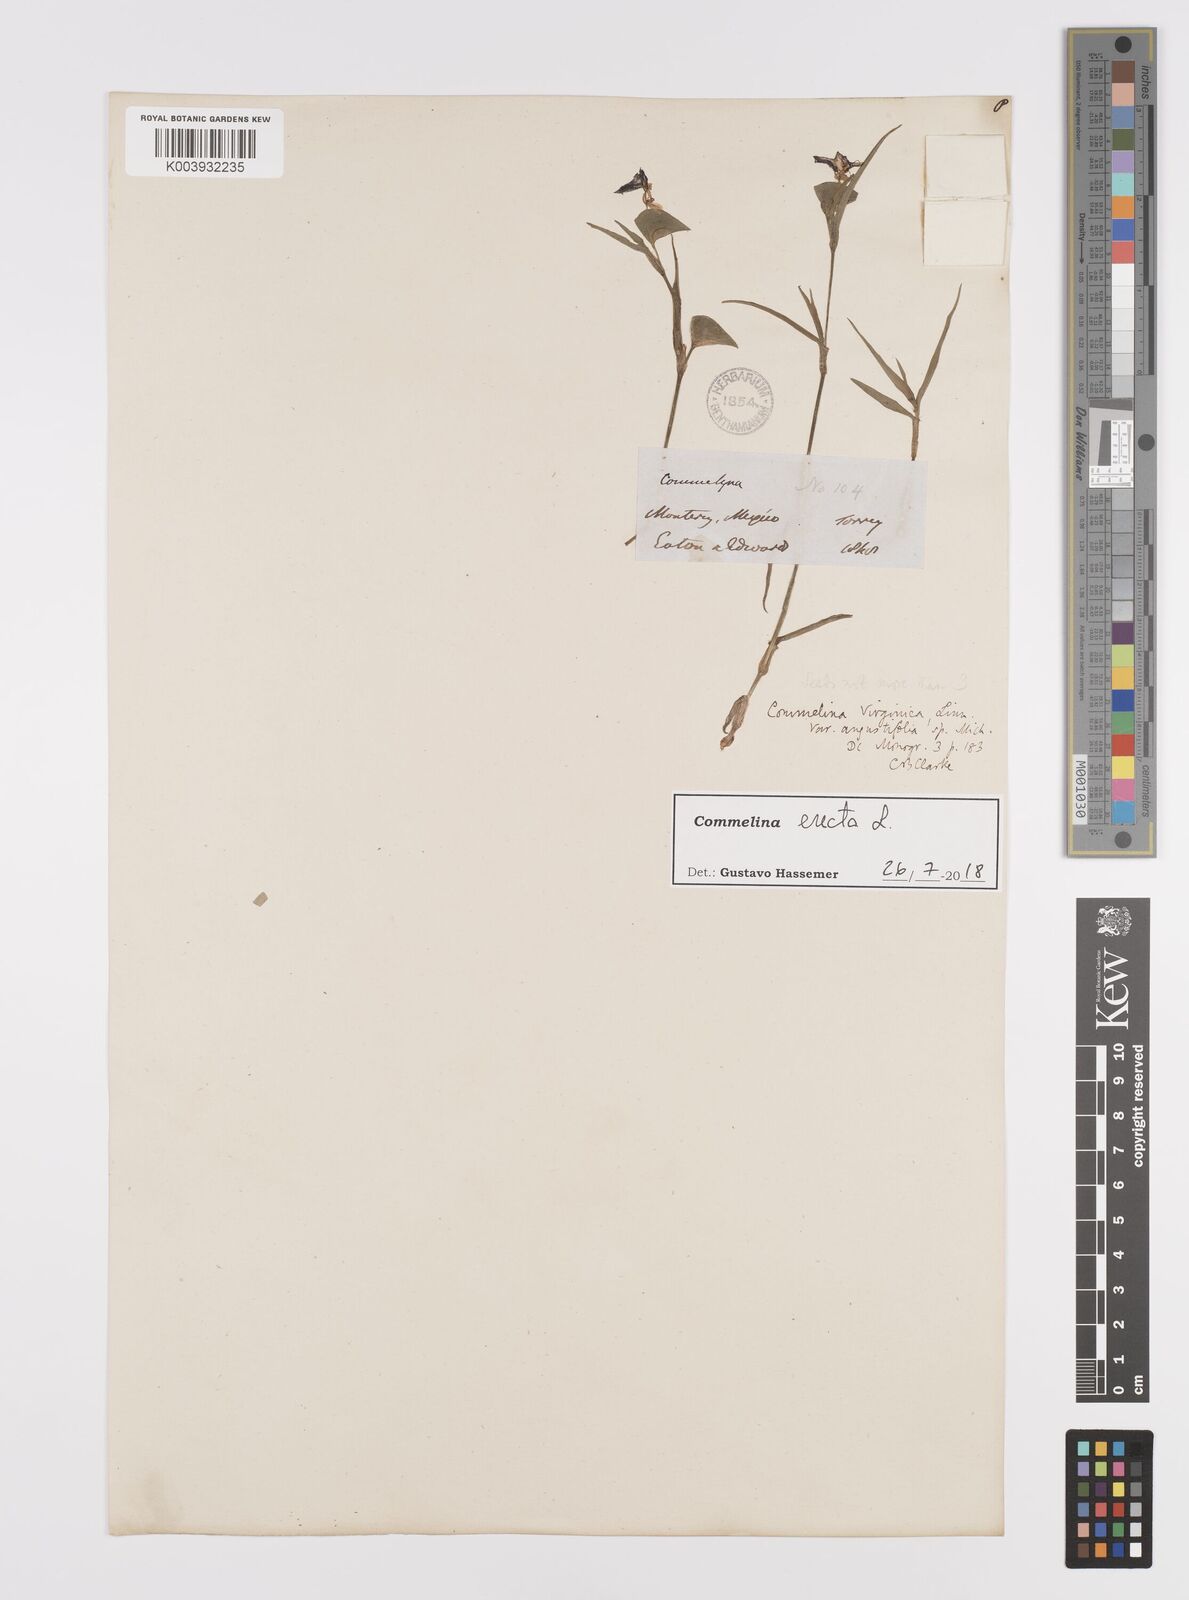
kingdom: Plantae
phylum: Tracheophyta
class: Liliopsida
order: Commelinales
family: Commelinaceae
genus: Commelina
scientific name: Commelina erecta
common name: Blousel blommetjie
